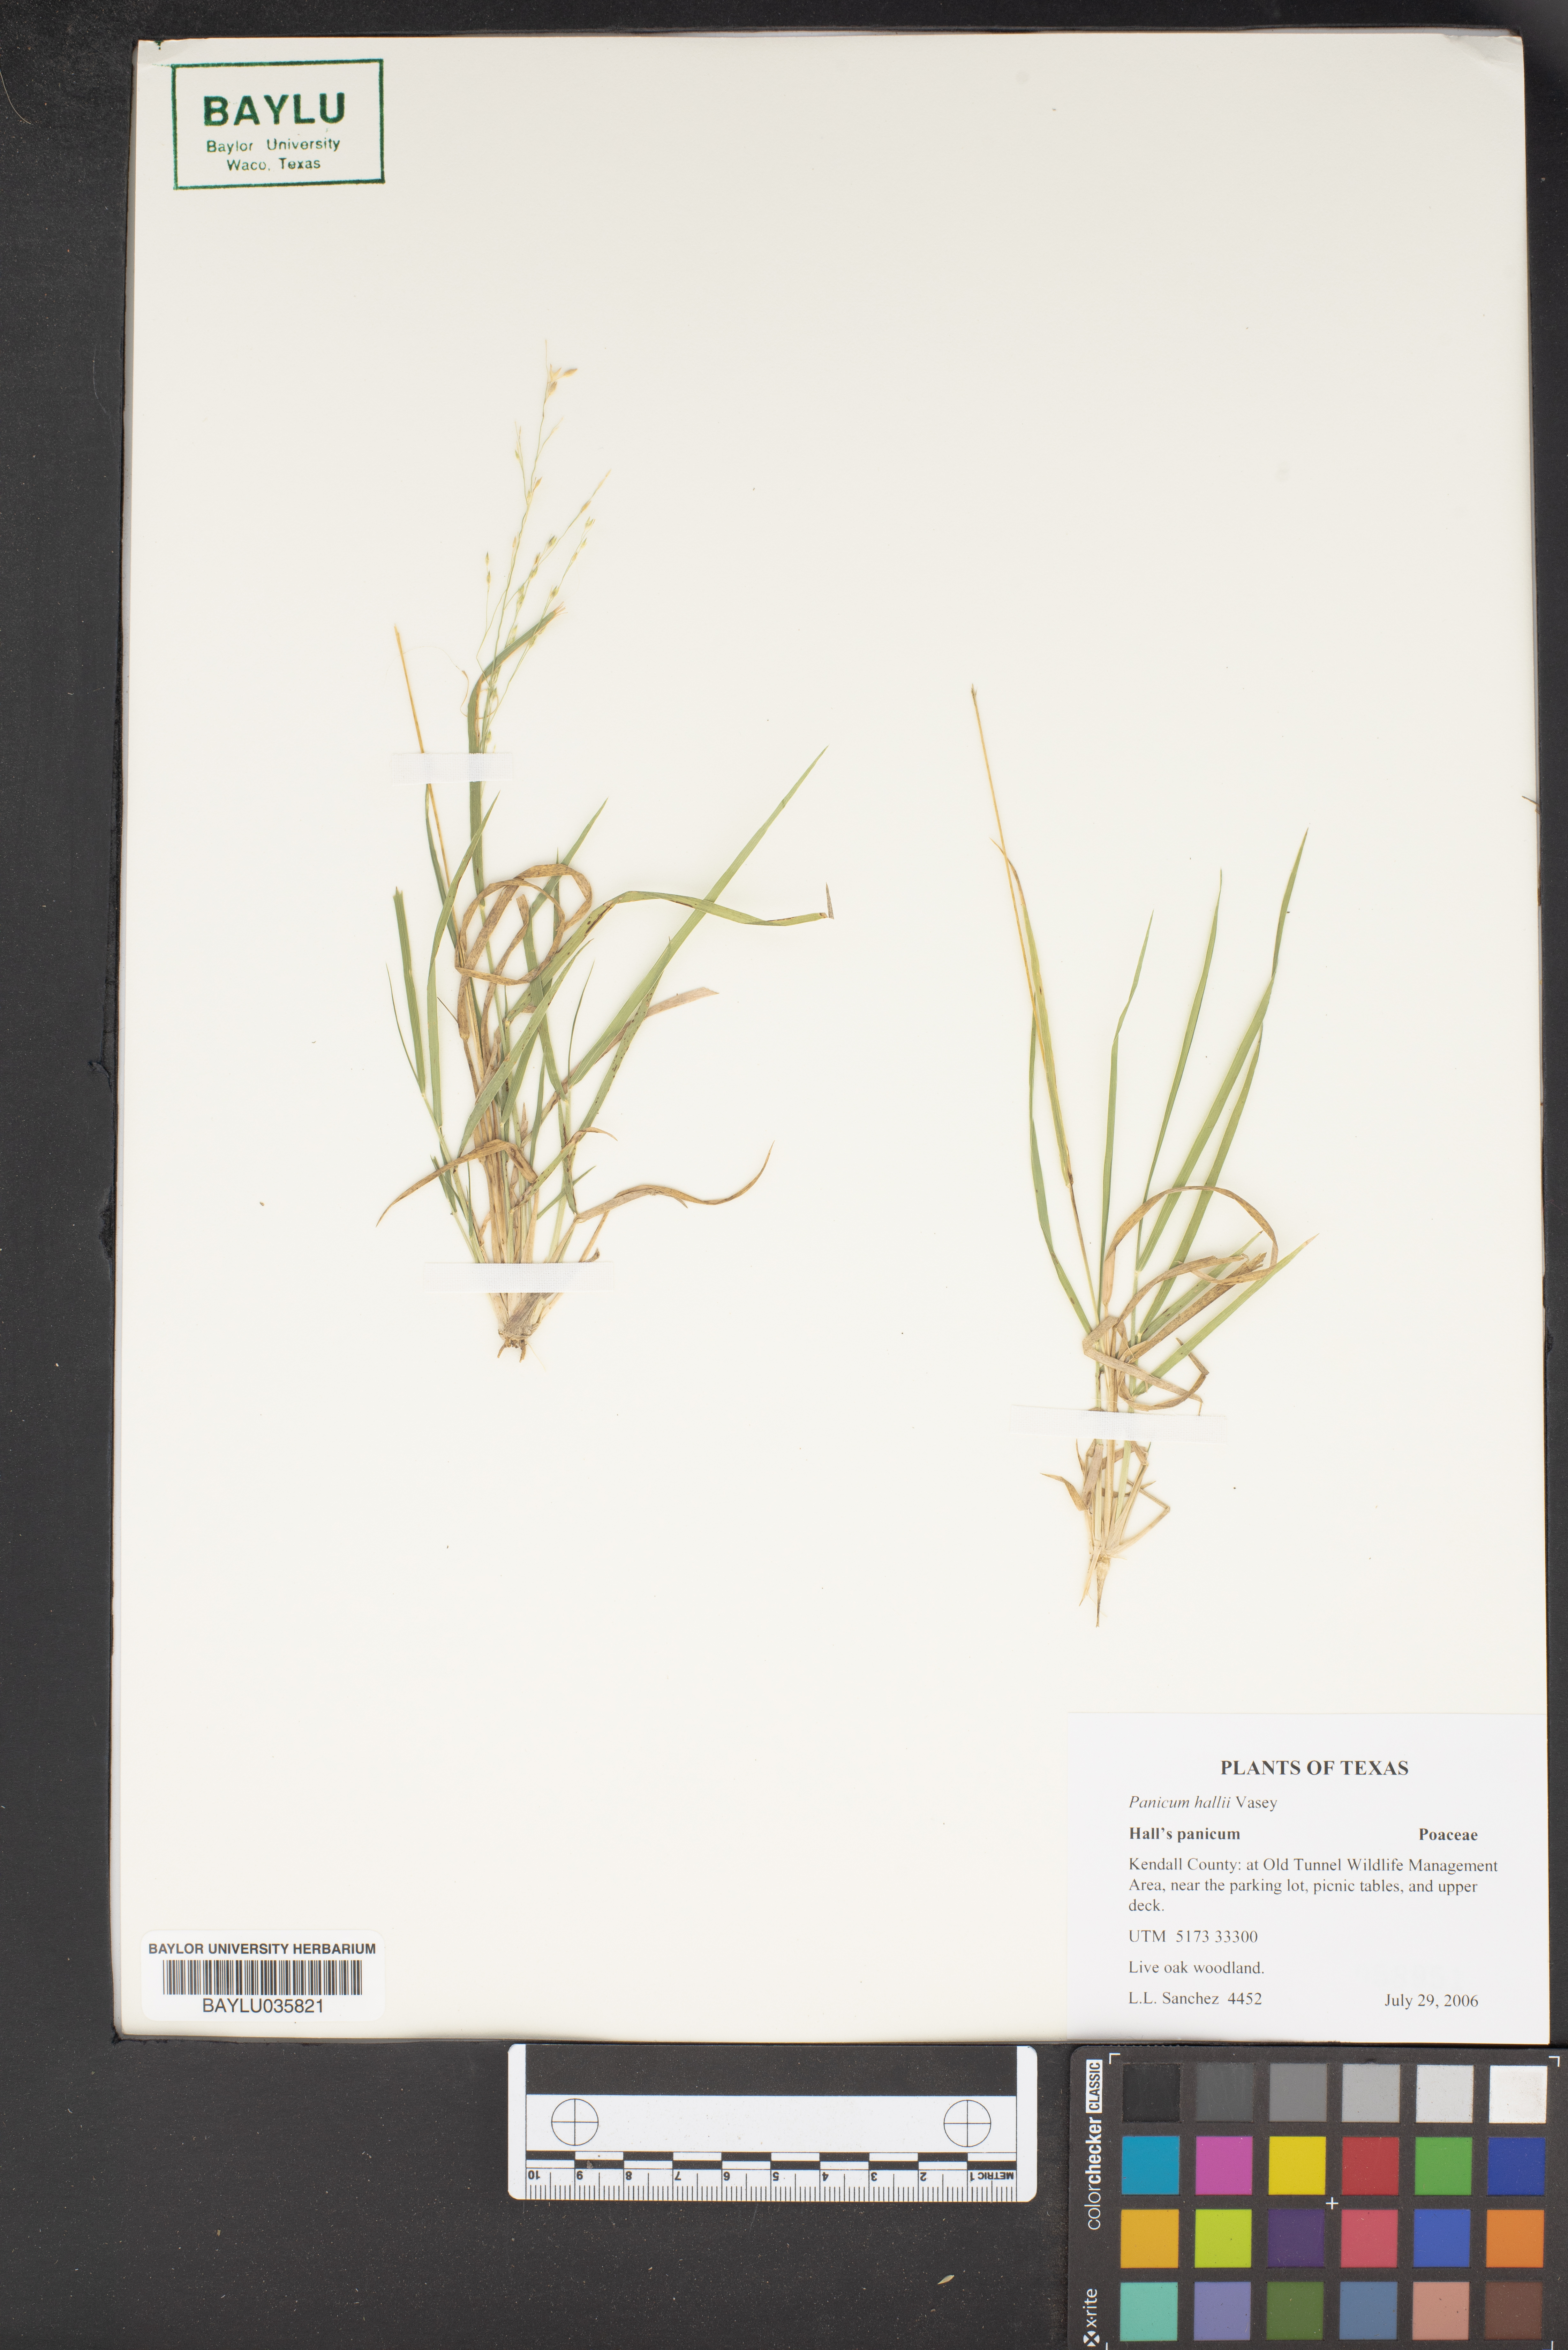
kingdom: Plantae
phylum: Tracheophyta
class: Liliopsida
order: Poales
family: Poaceae
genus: Panicum
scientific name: Panicum hallii
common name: Hall's witchgrass
